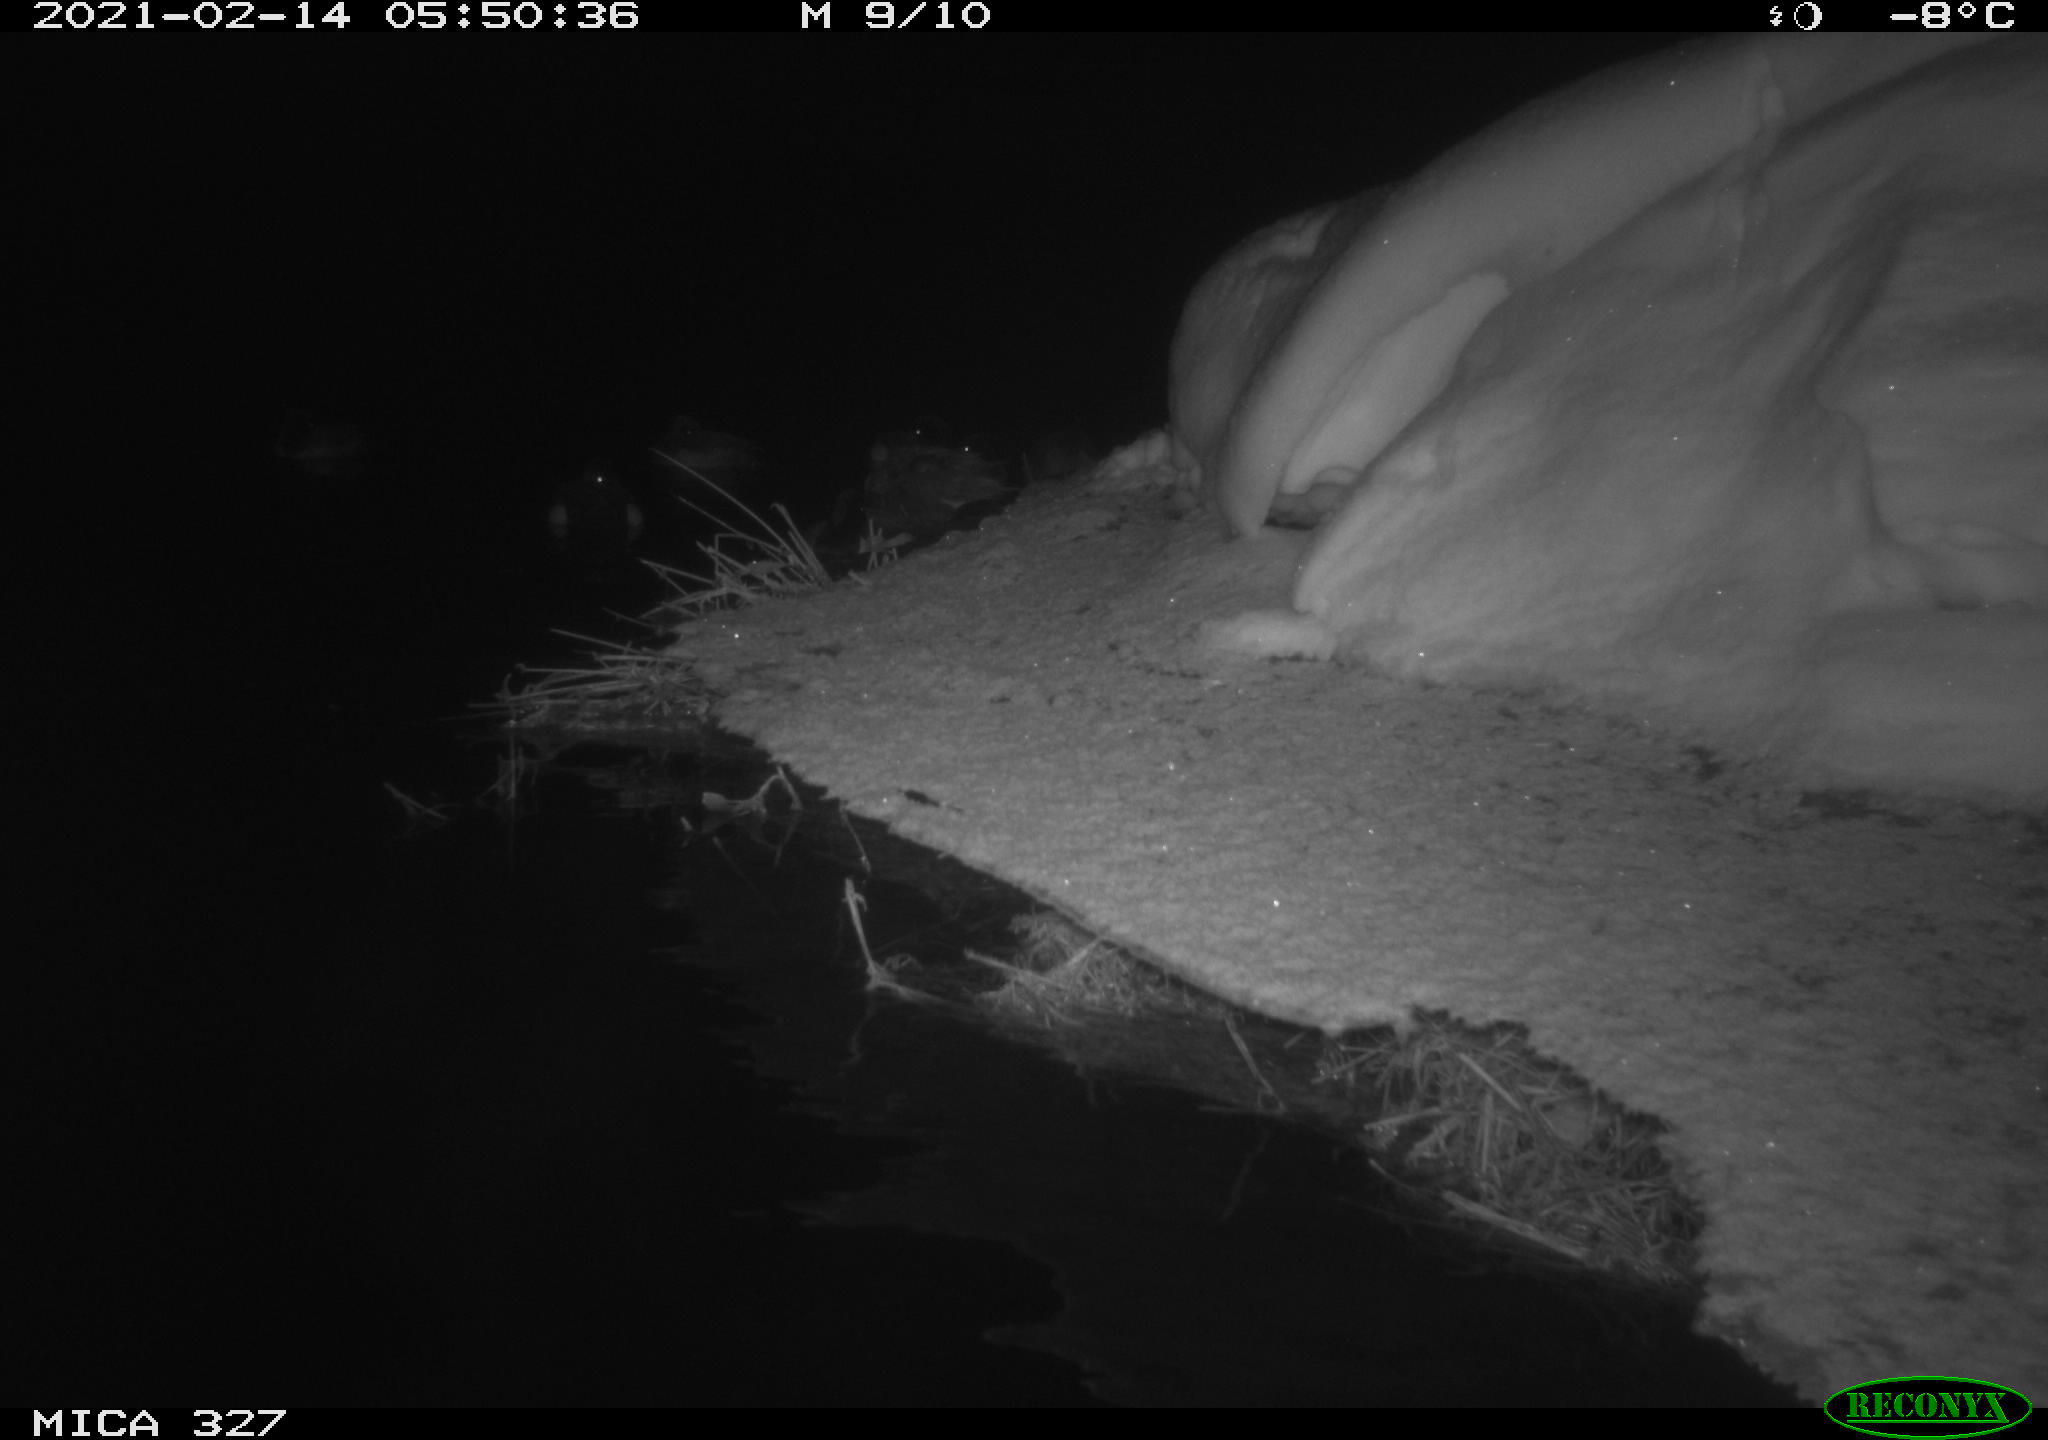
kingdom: Animalia
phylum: Chordata
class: Aves
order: Anseriformes
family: Anatidae
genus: Anas
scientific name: Anas
